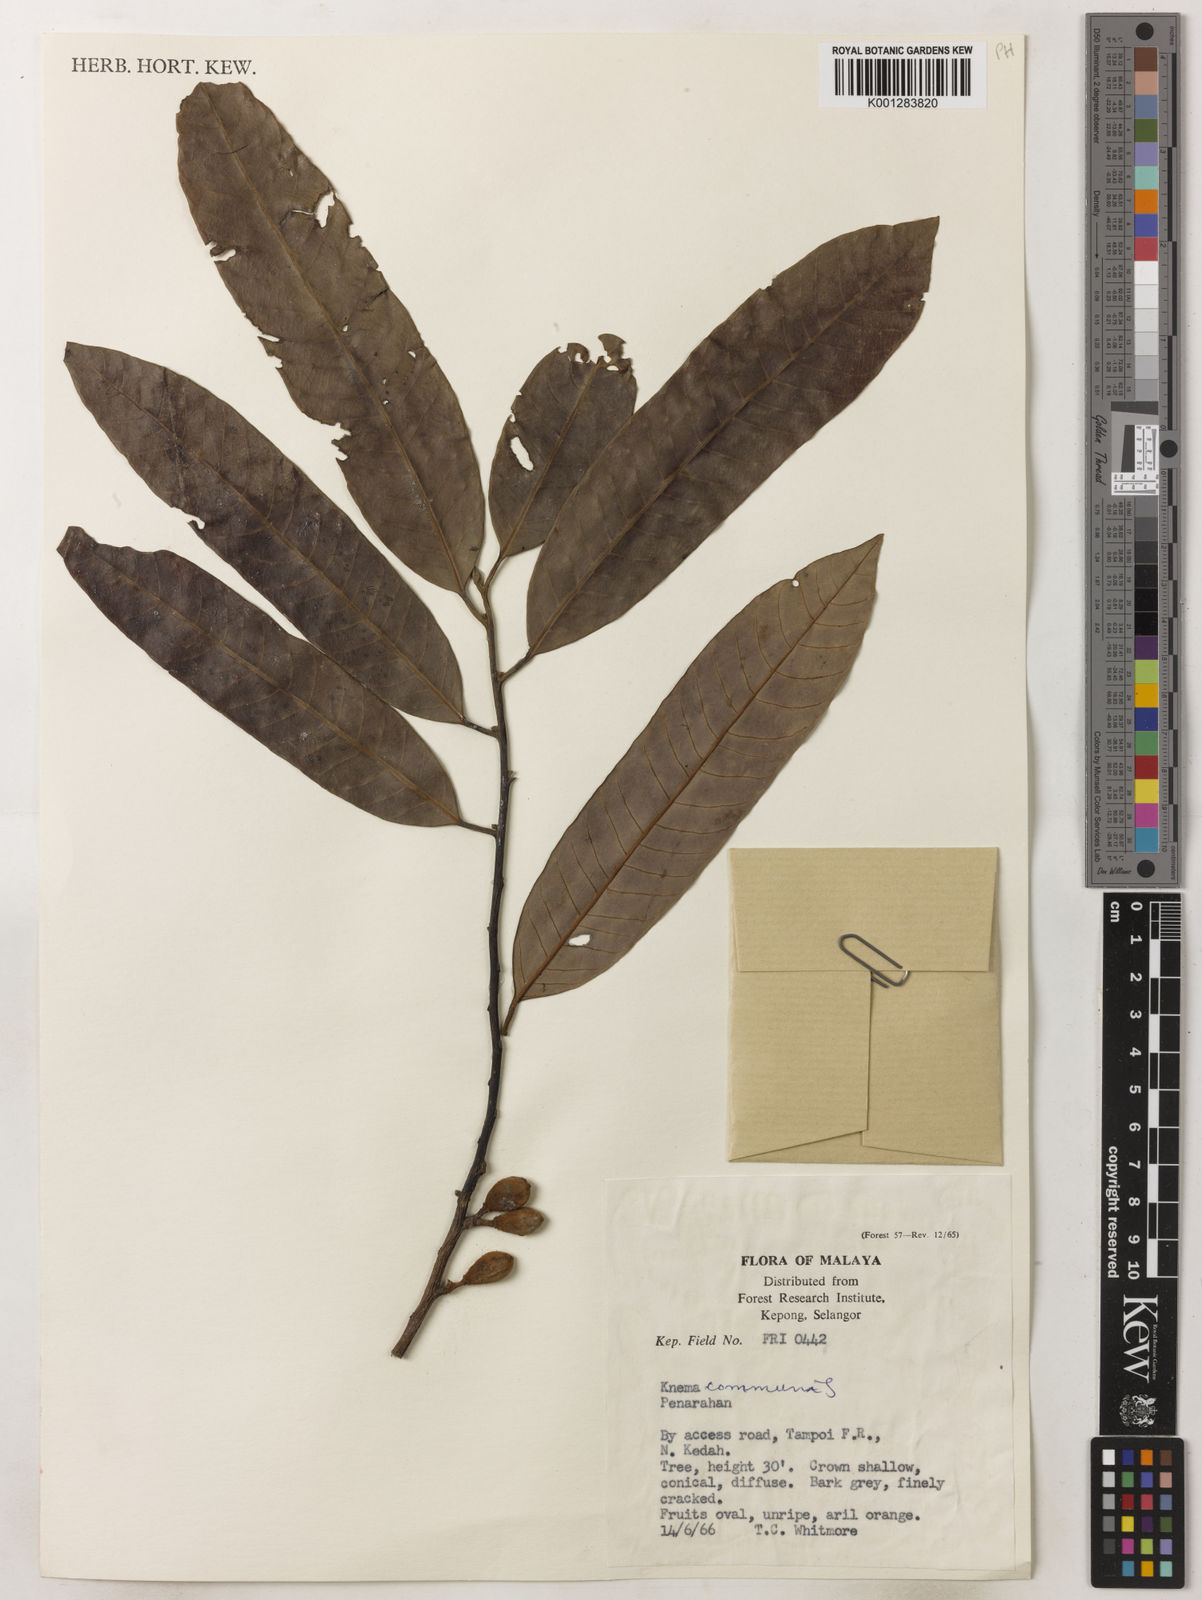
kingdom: Plantae
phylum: Tracheophyta
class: Magnoliopsida
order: Magnoliales
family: Myristicaceae
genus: Knema
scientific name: Knema communis
